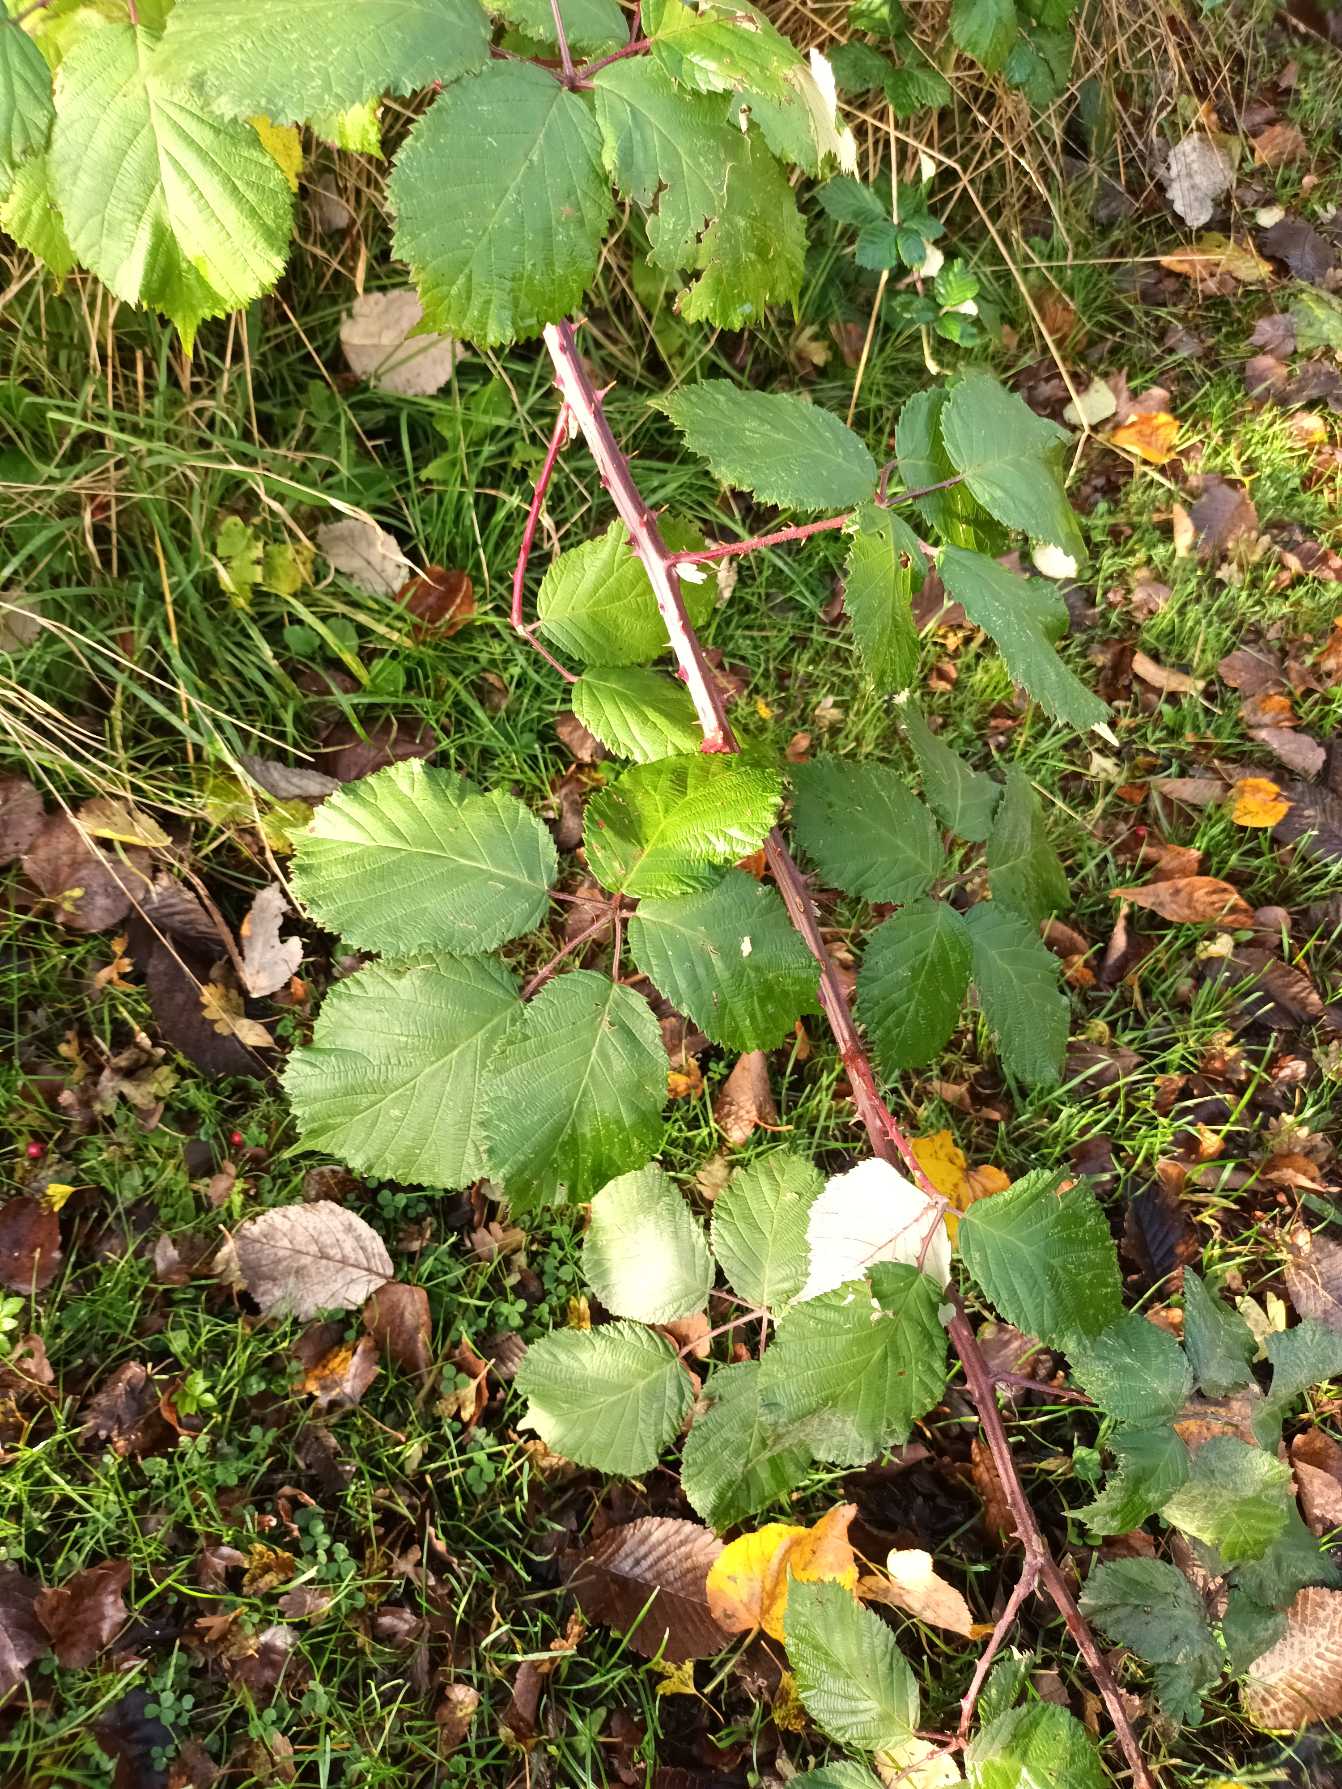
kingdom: Plantae
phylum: Tracheophyta
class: Magnoliopsida
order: Rosales
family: Rosaceae
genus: Rubus
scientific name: Rubus armeniacus
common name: Armensk brombær
